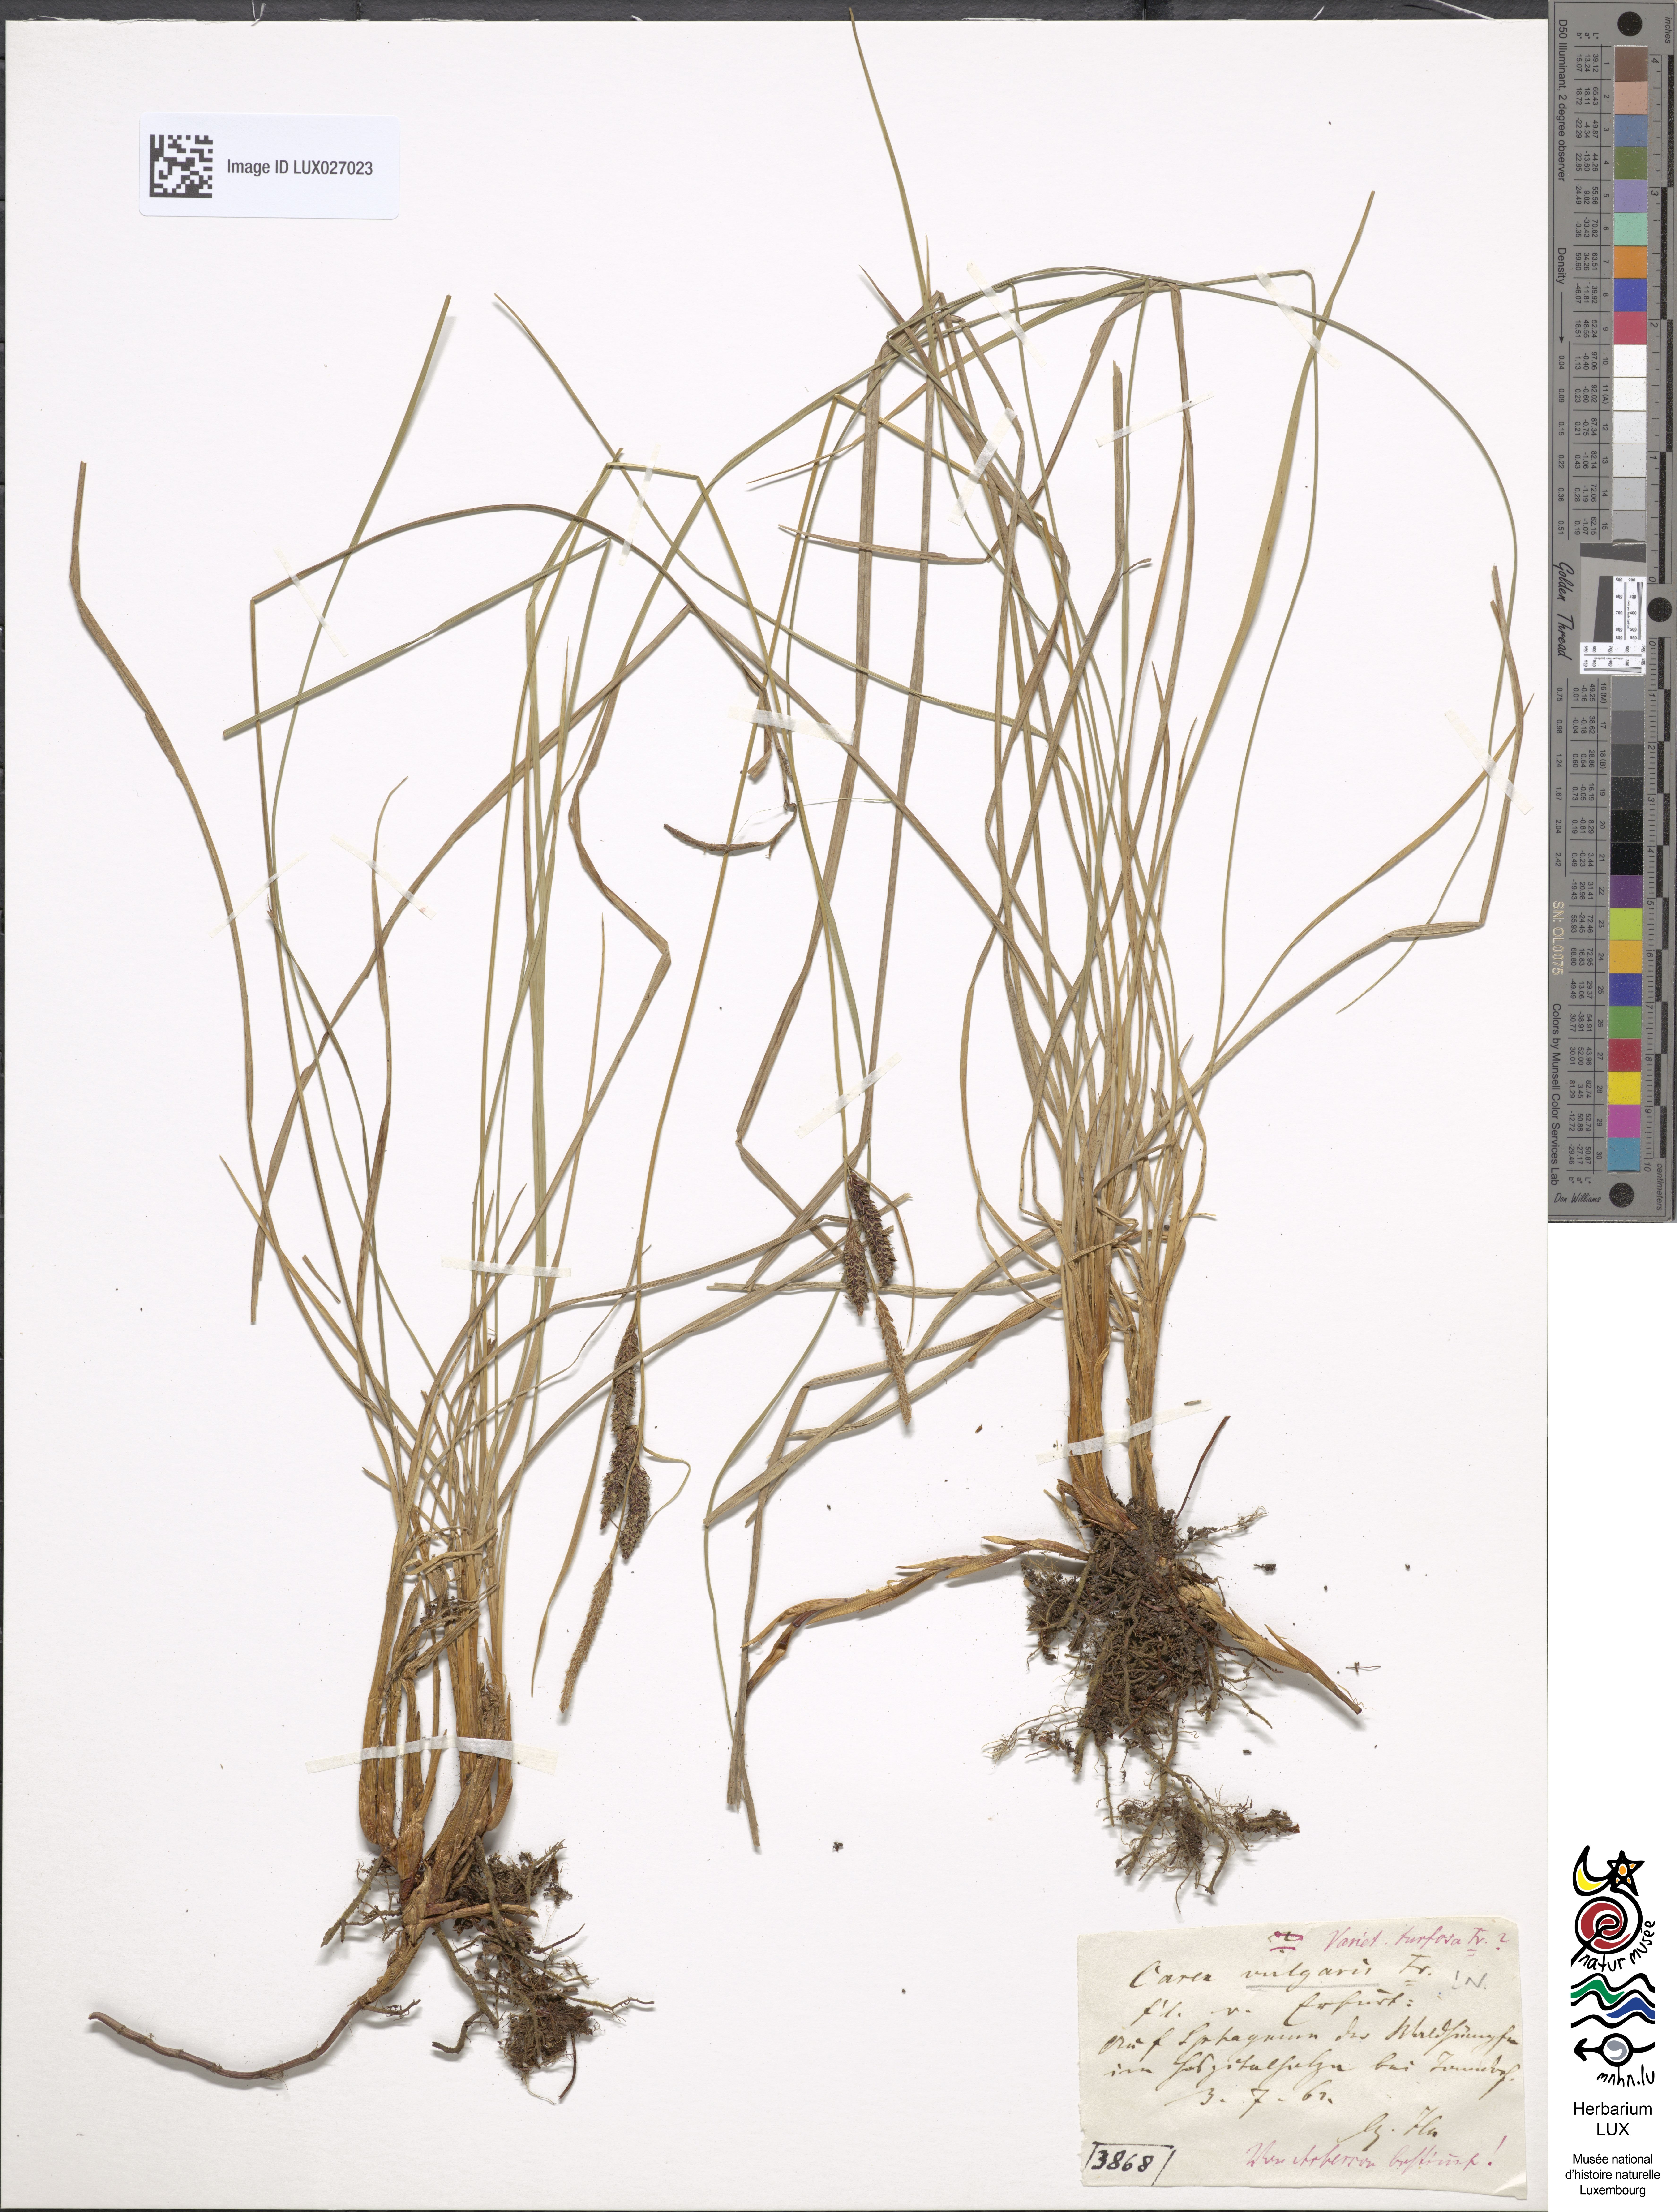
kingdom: Plantae
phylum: Tracheophyta
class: Liliopsida
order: Poales
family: Cyperaceae
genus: Carex
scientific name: Carex turfosa
